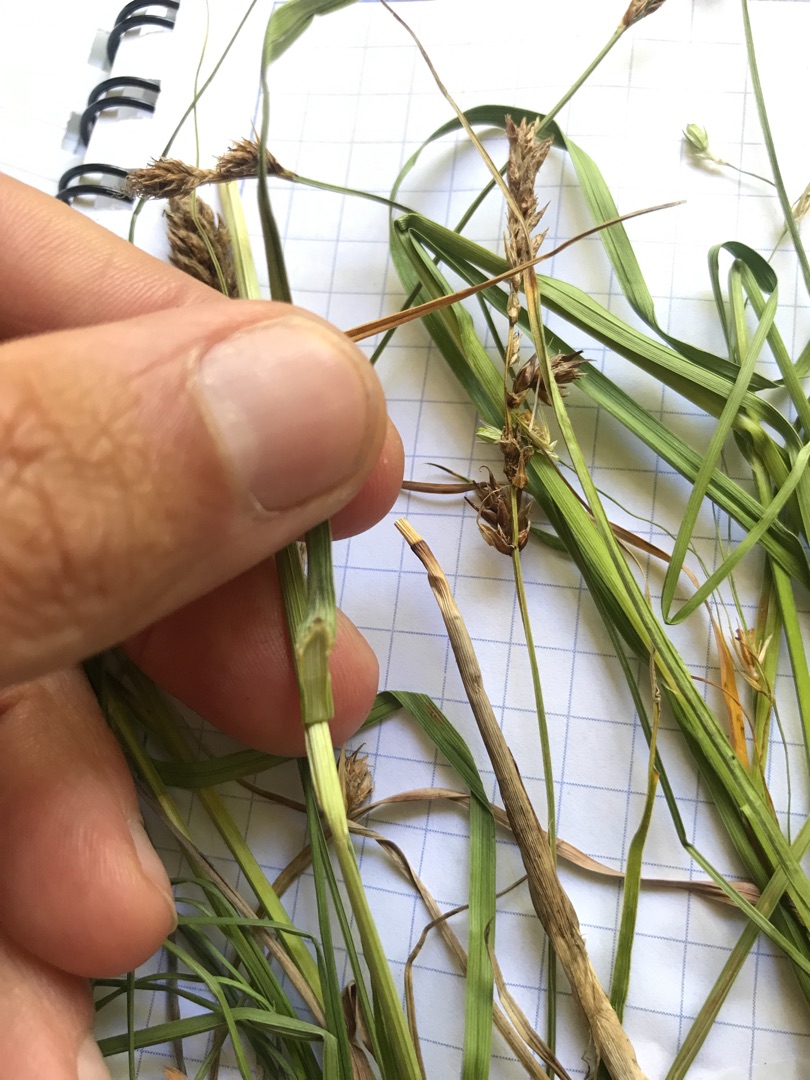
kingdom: Plantae
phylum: Tracheophyta
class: Liliopsida
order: Poales
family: Cyperaceae
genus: Carex
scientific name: Carex disticha
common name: Toradet star
